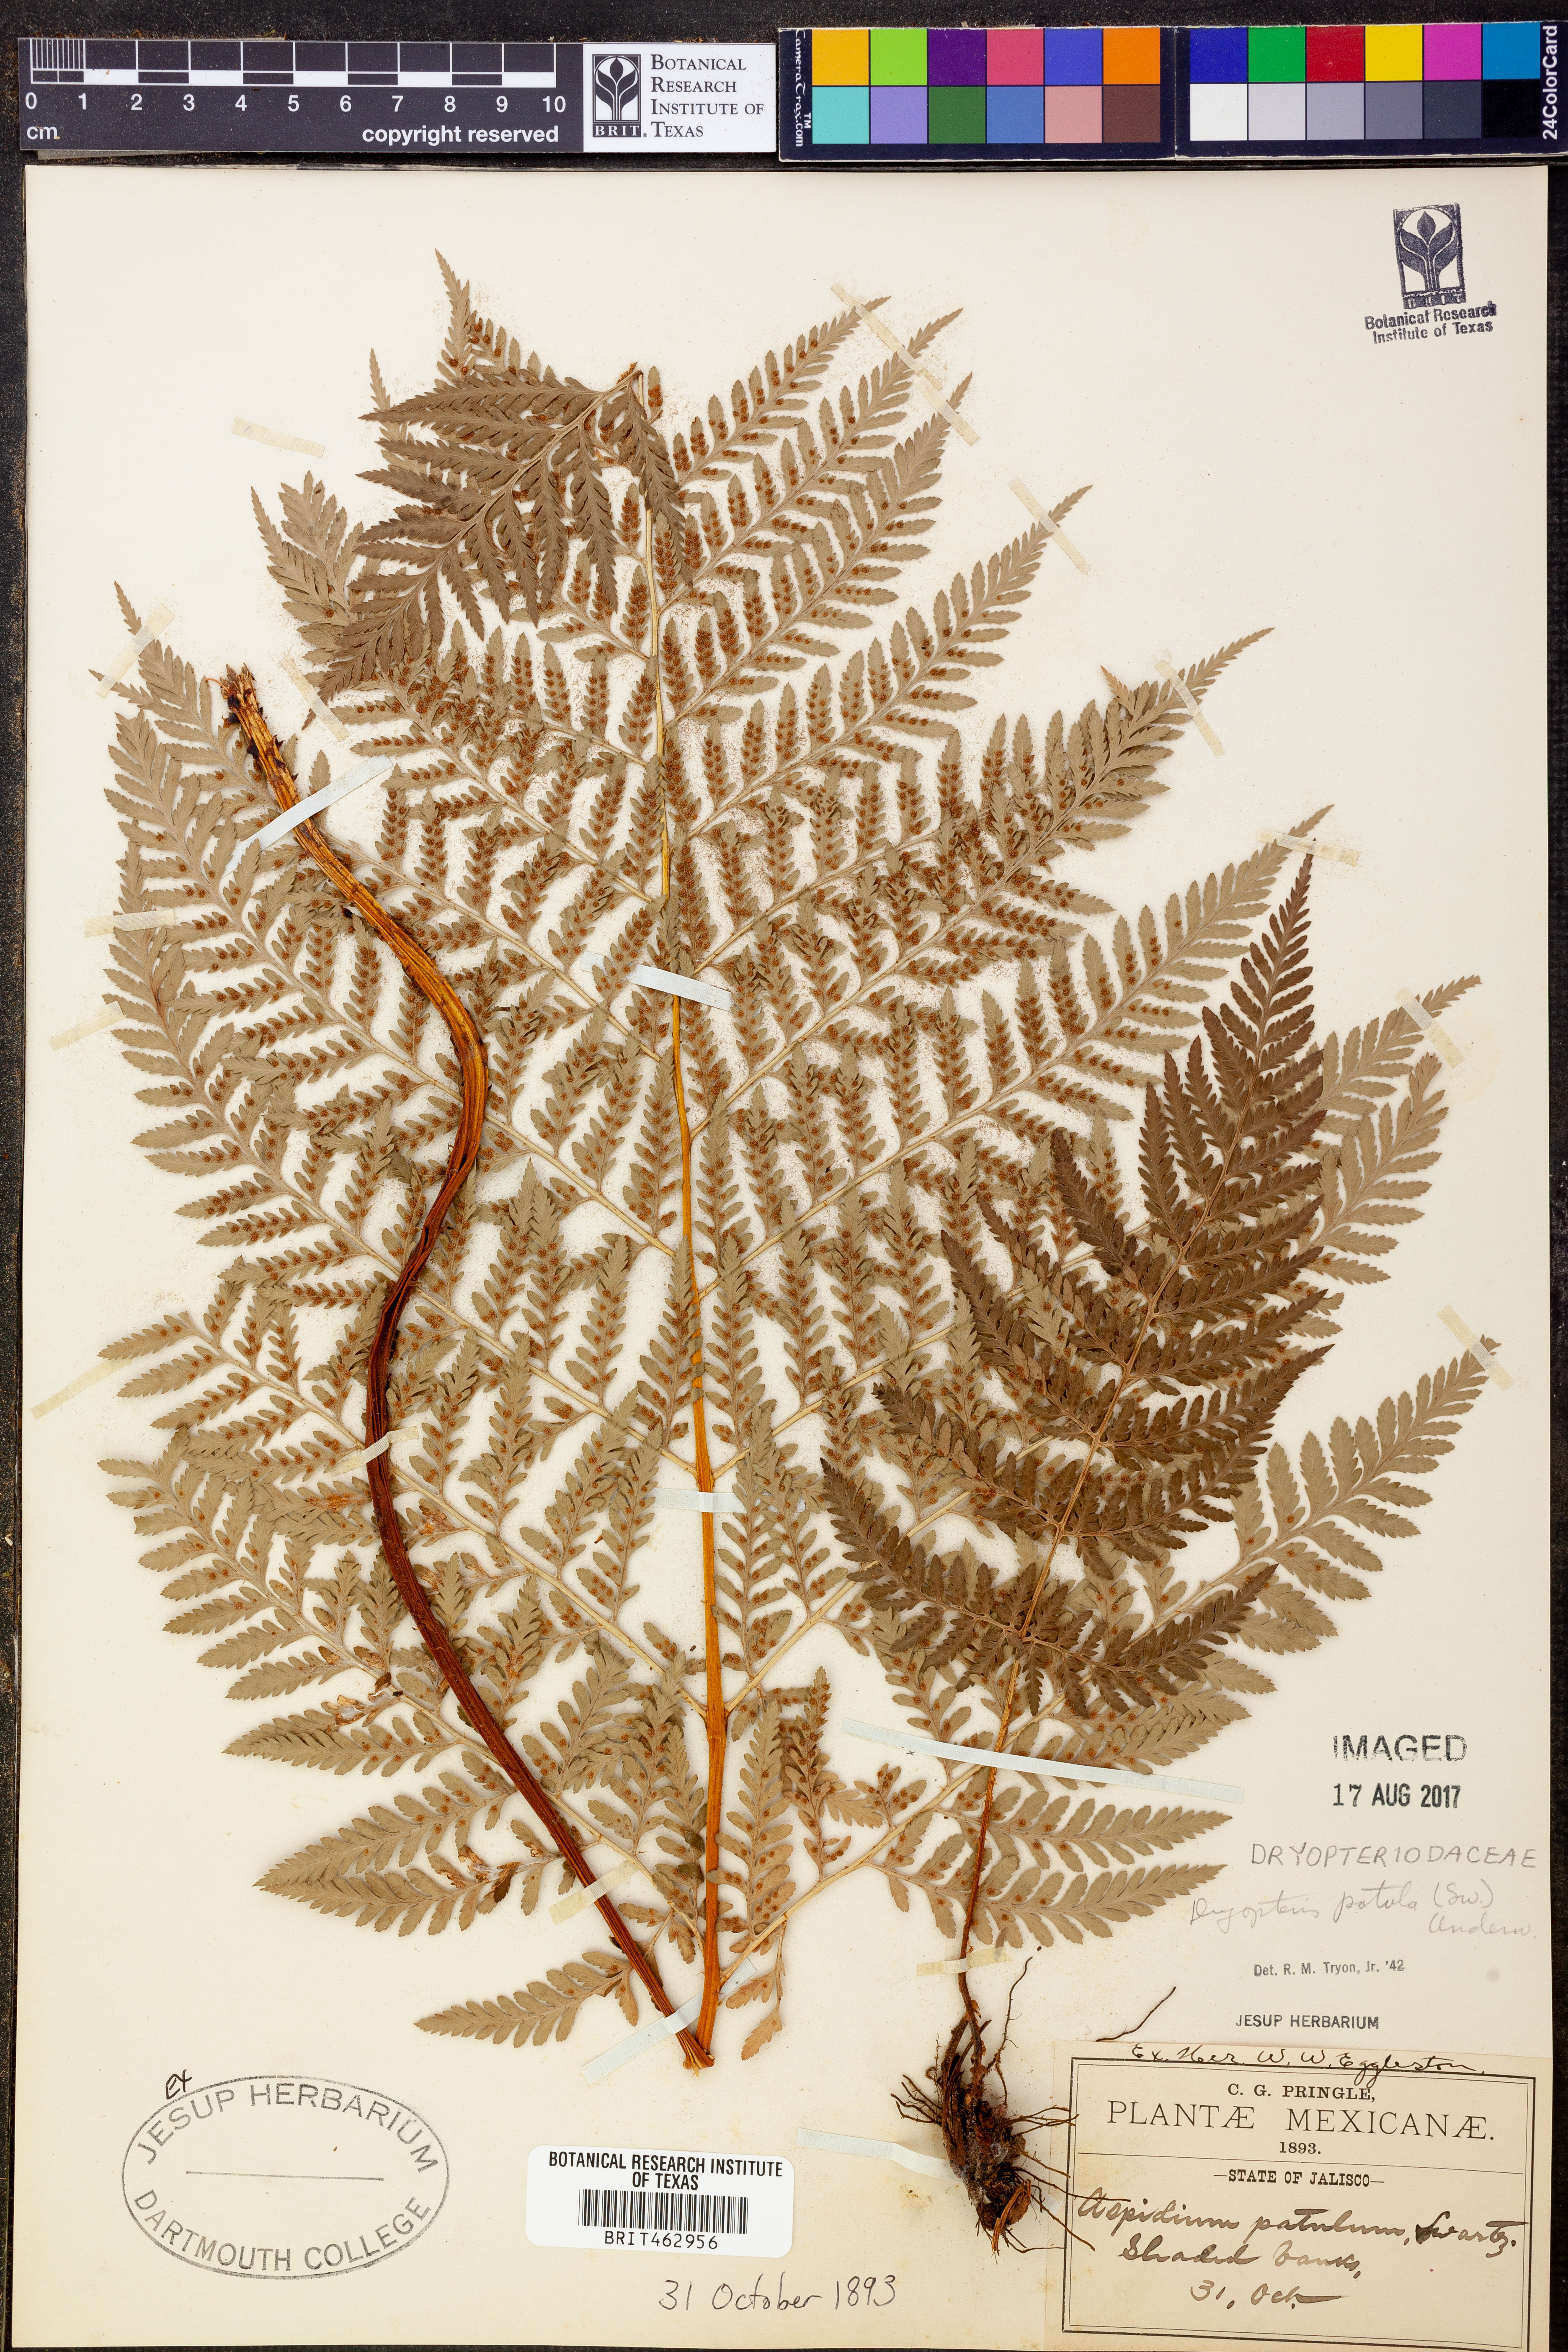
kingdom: Plantae
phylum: Tracheophyta
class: Polypodiopsida
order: Polypodiales
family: Dryopteridaceae
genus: Dryopteris
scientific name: Dryopteris patula
